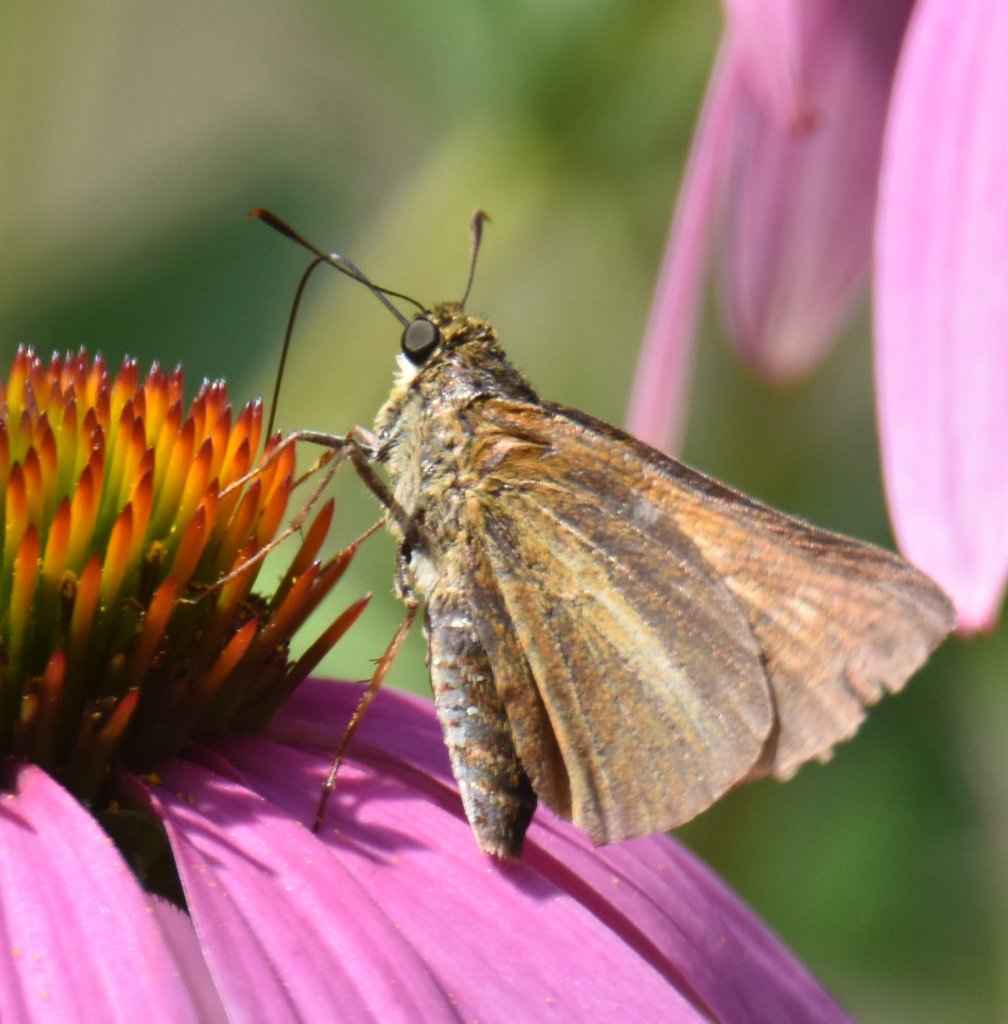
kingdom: Animalia
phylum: Arthropoda
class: Insecta
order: Lepidoptera
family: Hesperiidae
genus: Euphyes
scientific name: Euphyes dion
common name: Dion Skipper
